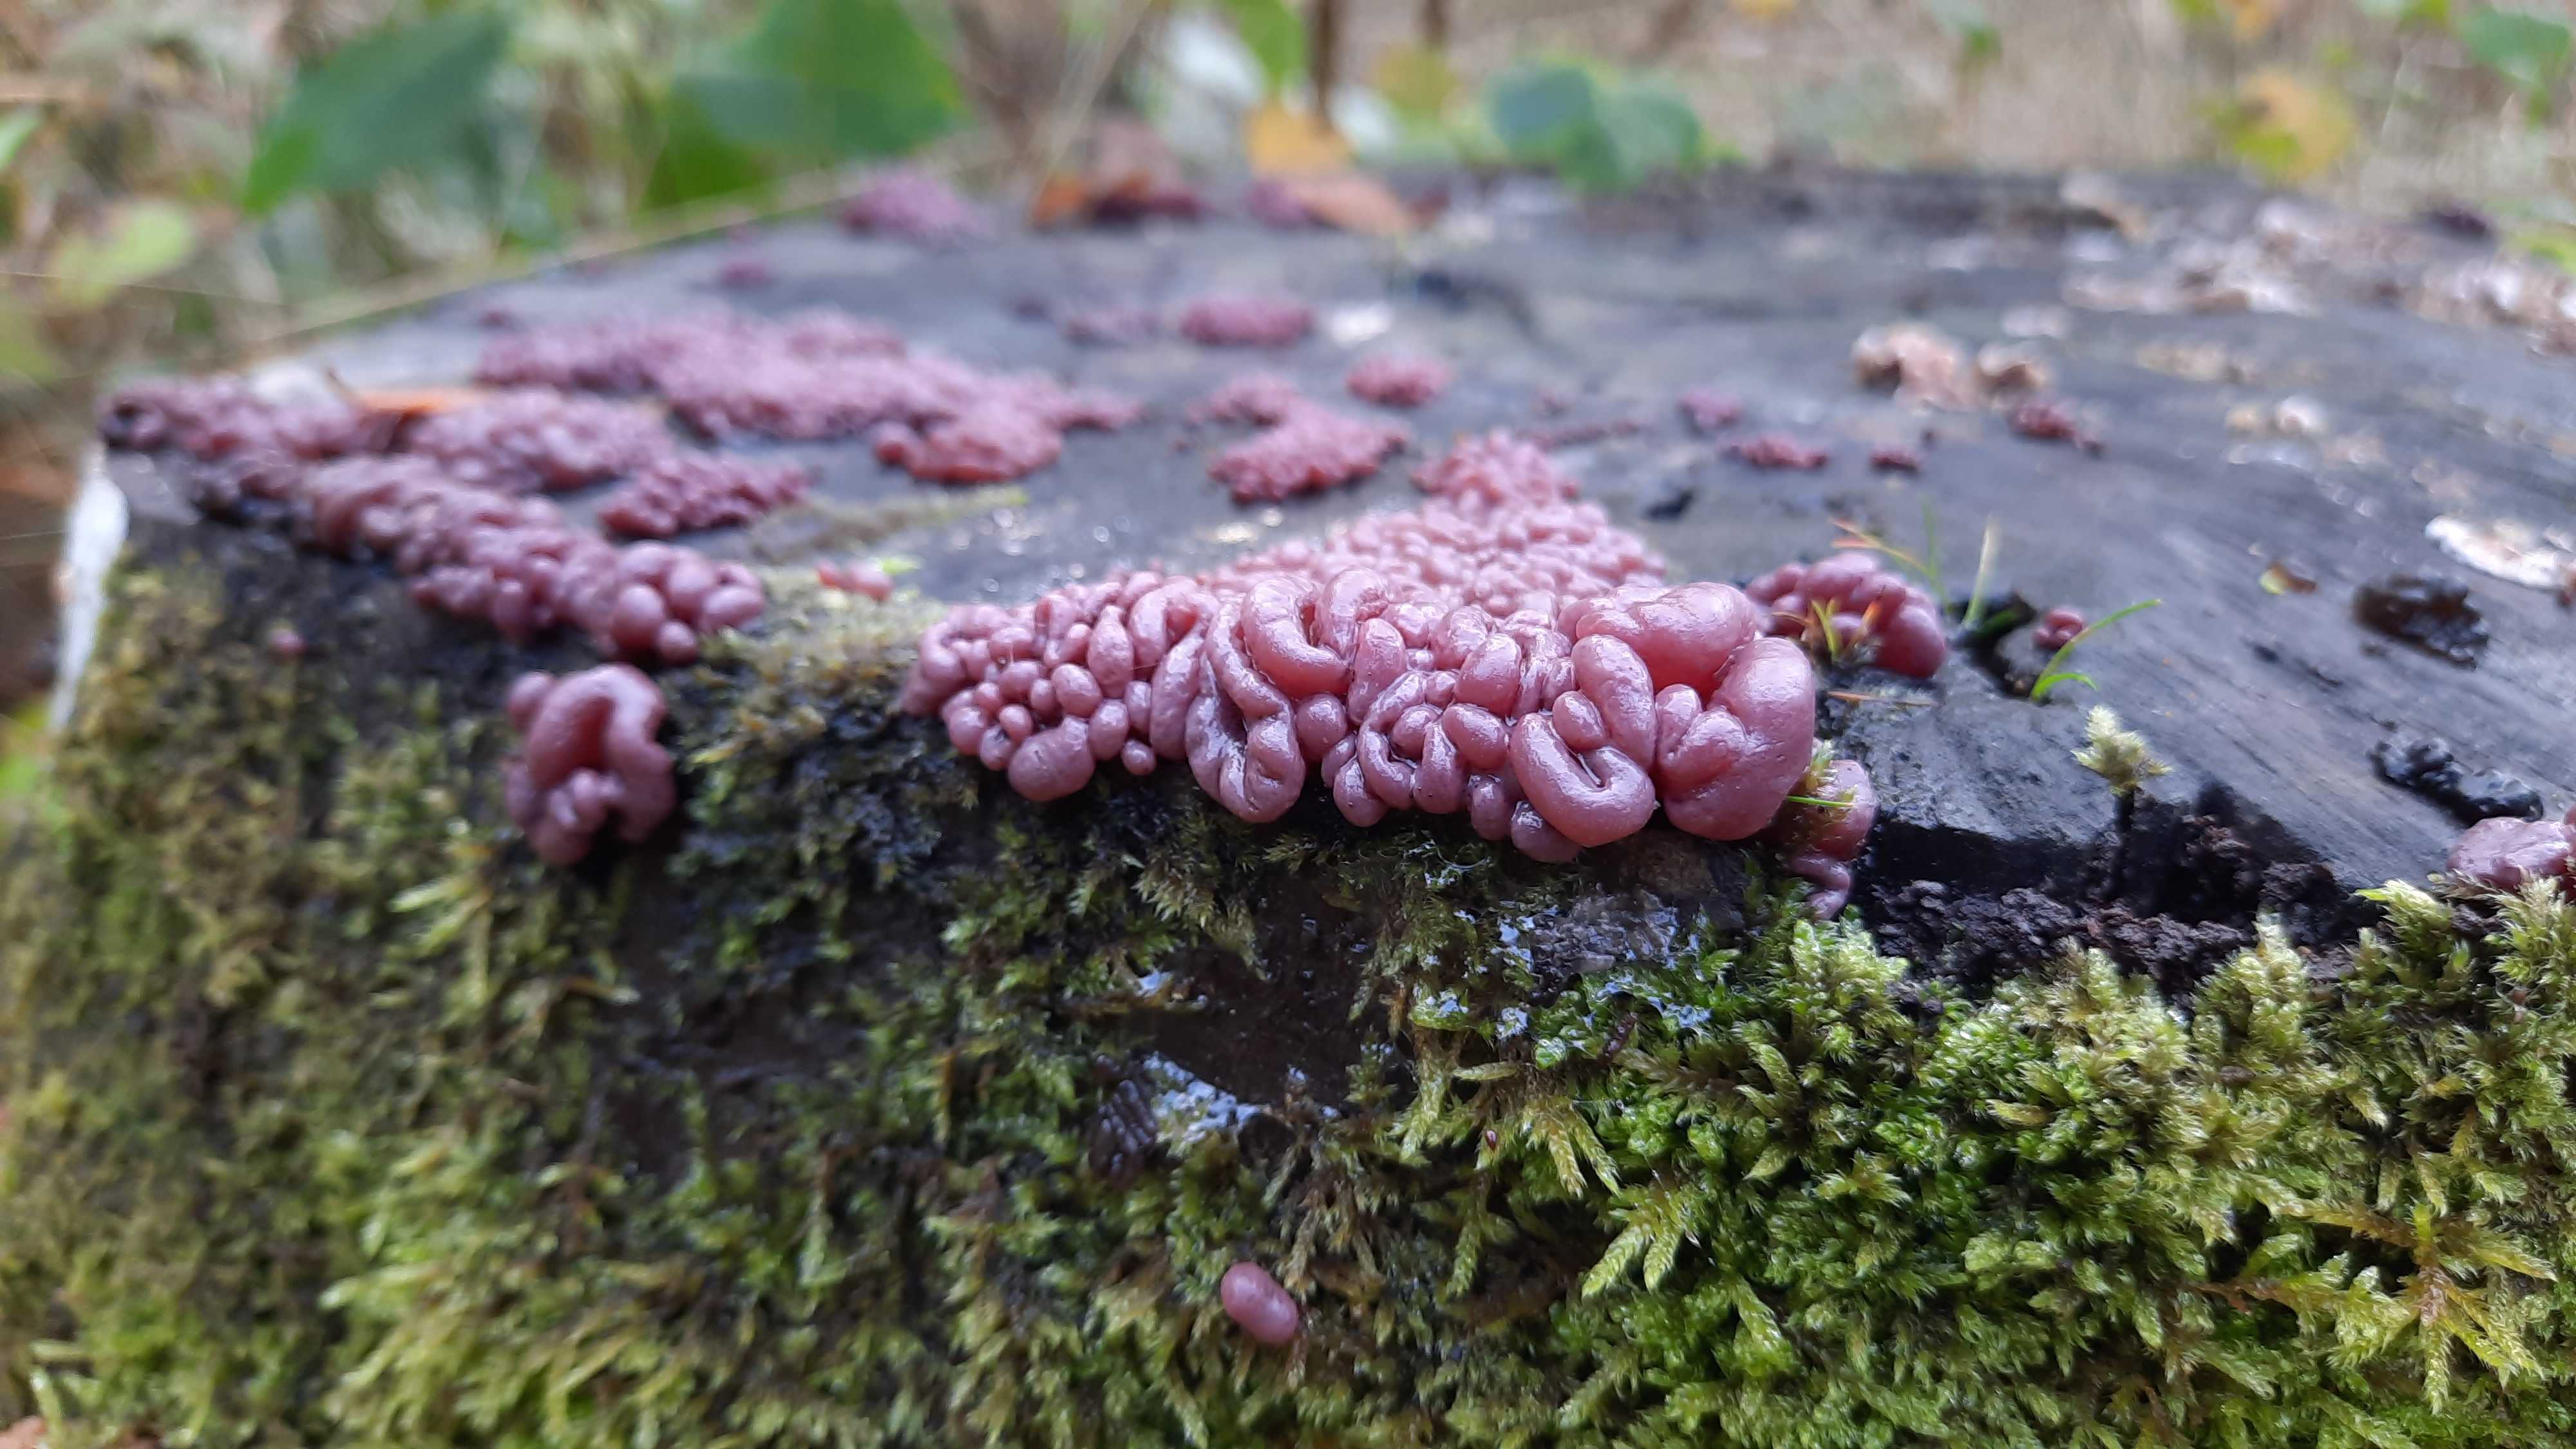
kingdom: Fungi
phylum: Ascomycota
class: Leotiomycetes
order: Helotiales
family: Gelatinodiscaceae
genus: Ascocoryne
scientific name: Ascocoryne sarcoides
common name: rødlilla sejskive
